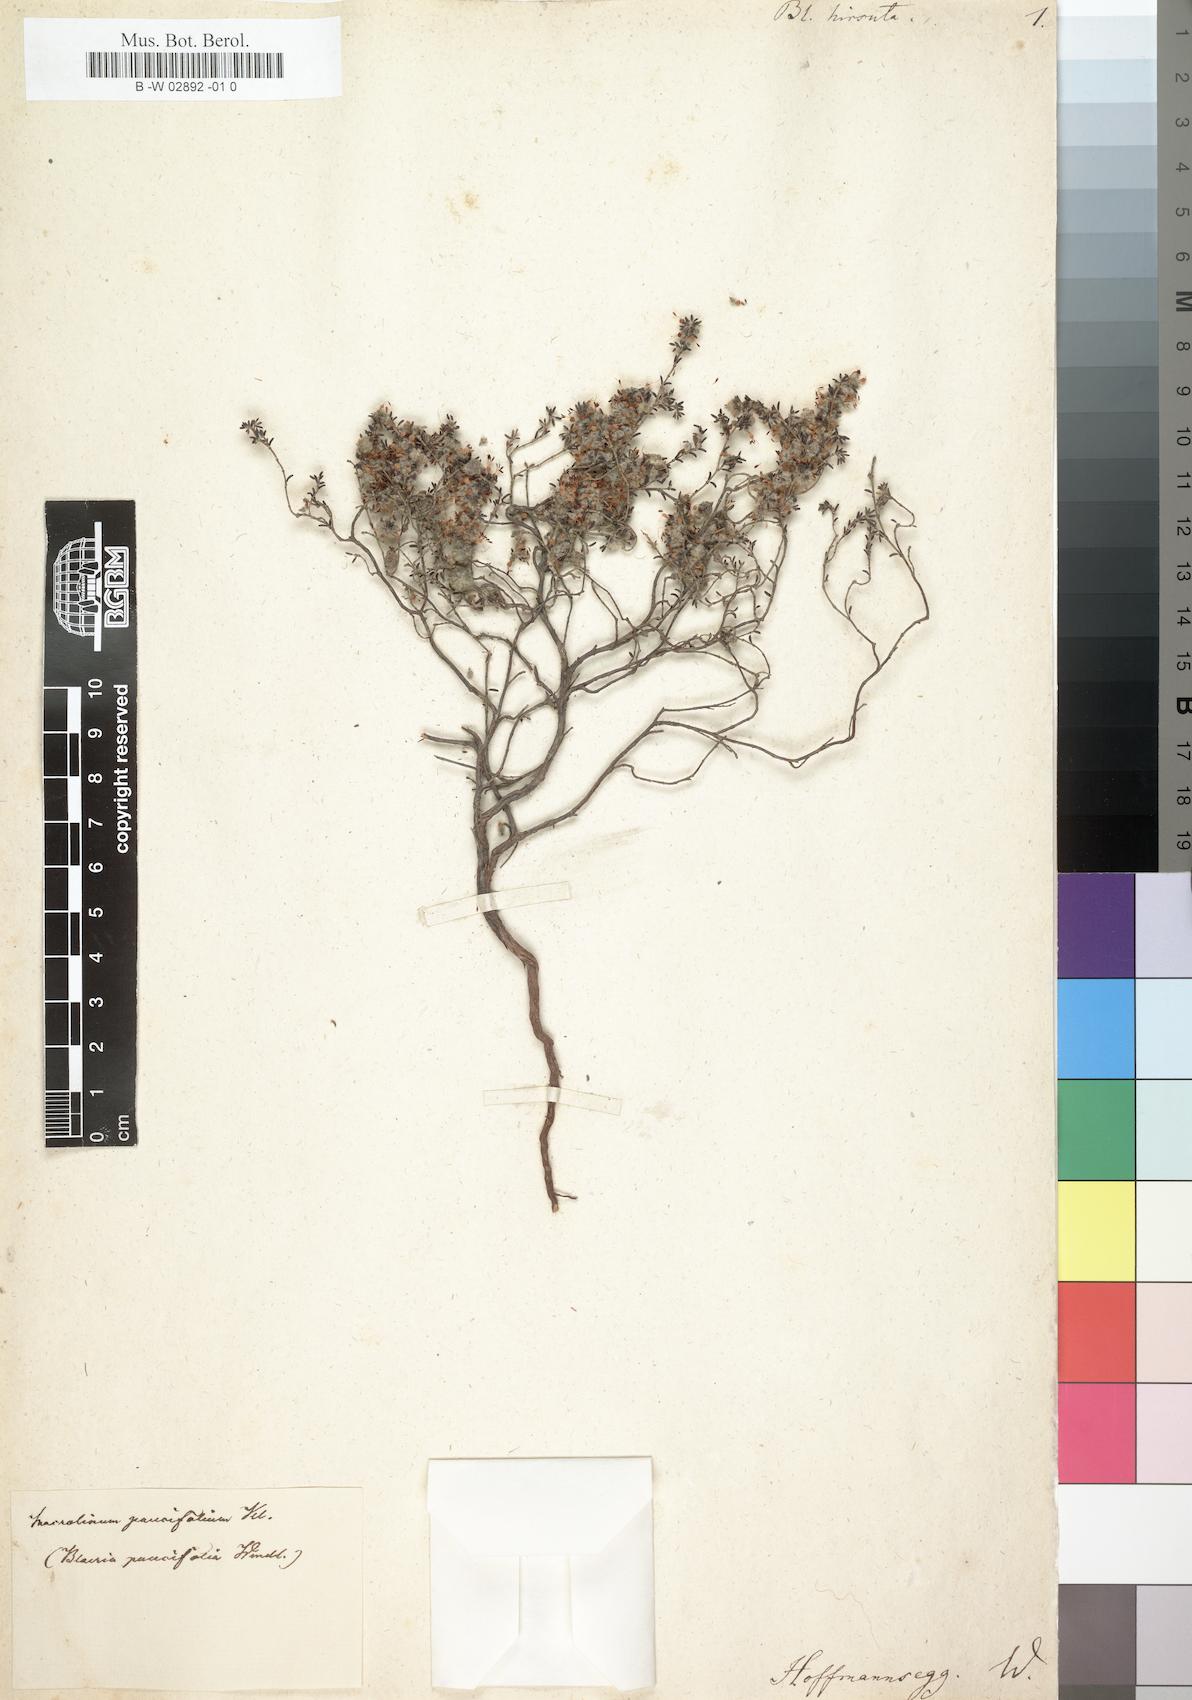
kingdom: Plantae
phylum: Tracheophyta
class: Magnoliopsida
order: Ericales
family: Ericaceae
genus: Erica
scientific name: Erica
